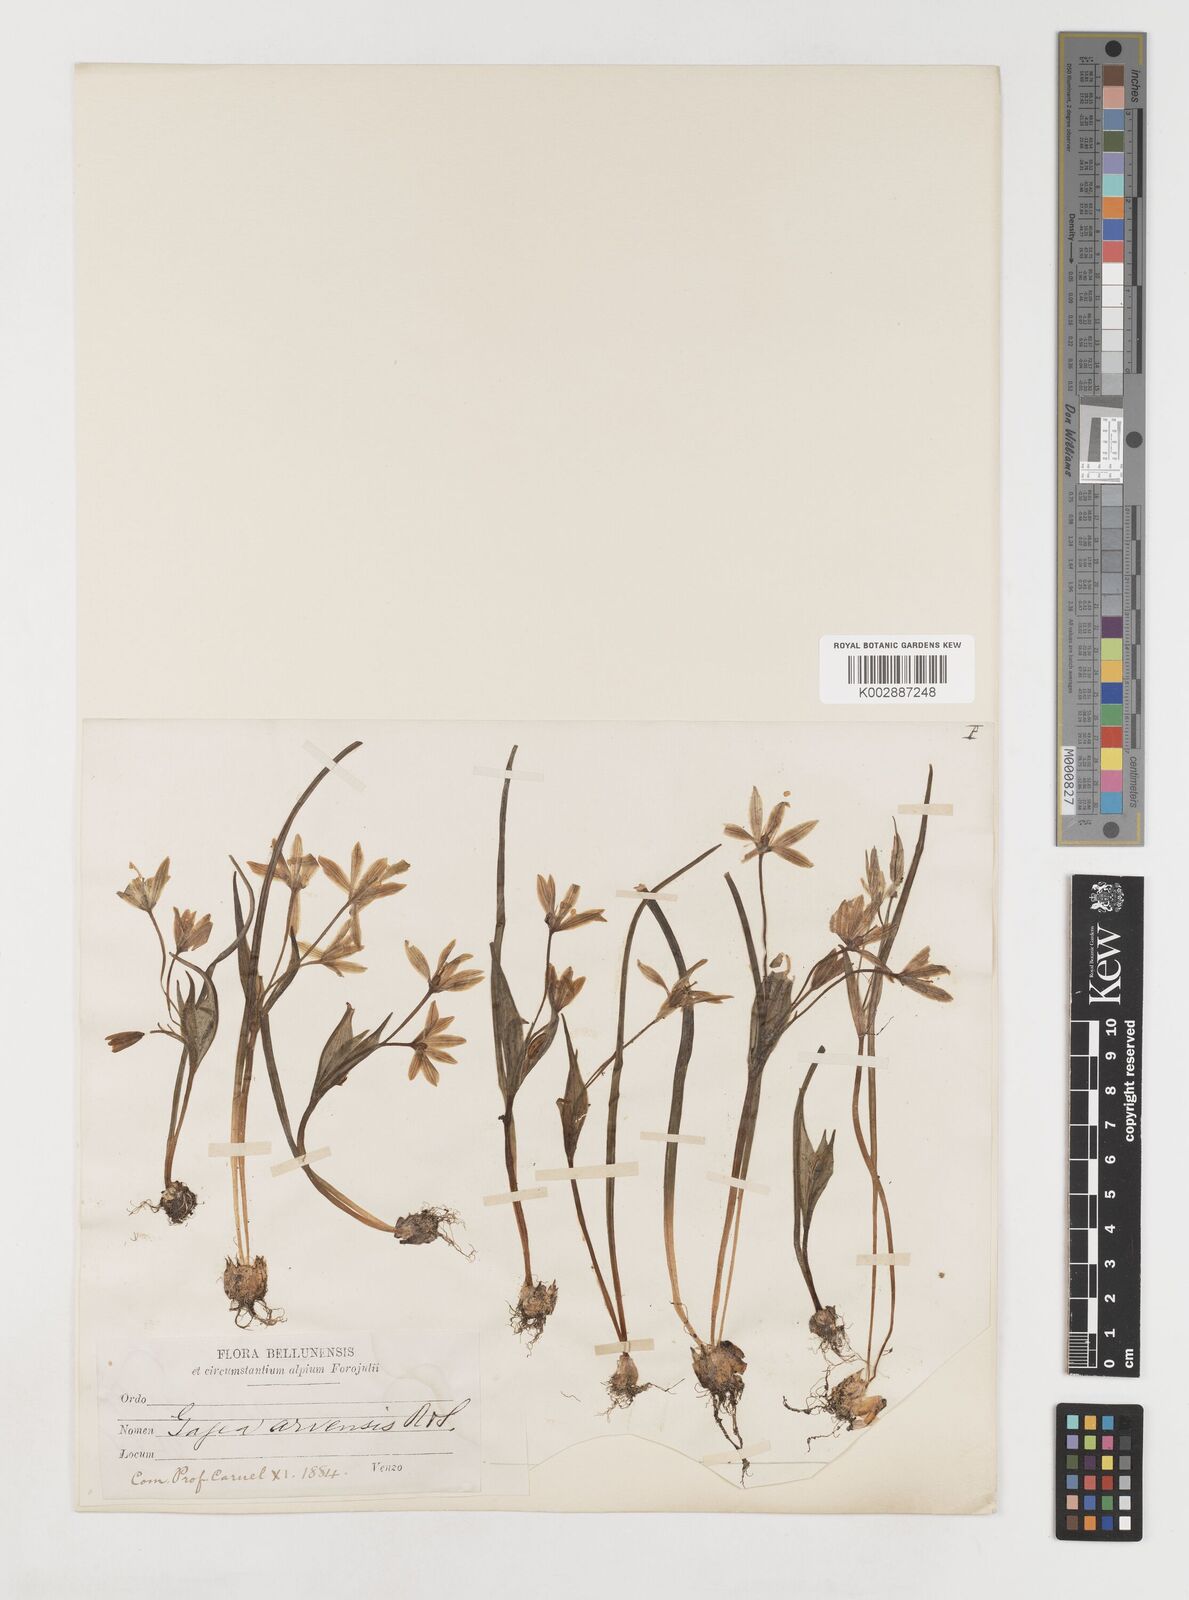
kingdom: Plantae
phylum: Tracheophyta
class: Liliopsida
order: Liliales
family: Liliaceae
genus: Gagea
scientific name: Gagea bohemica
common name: Early star-of-bethlehem
